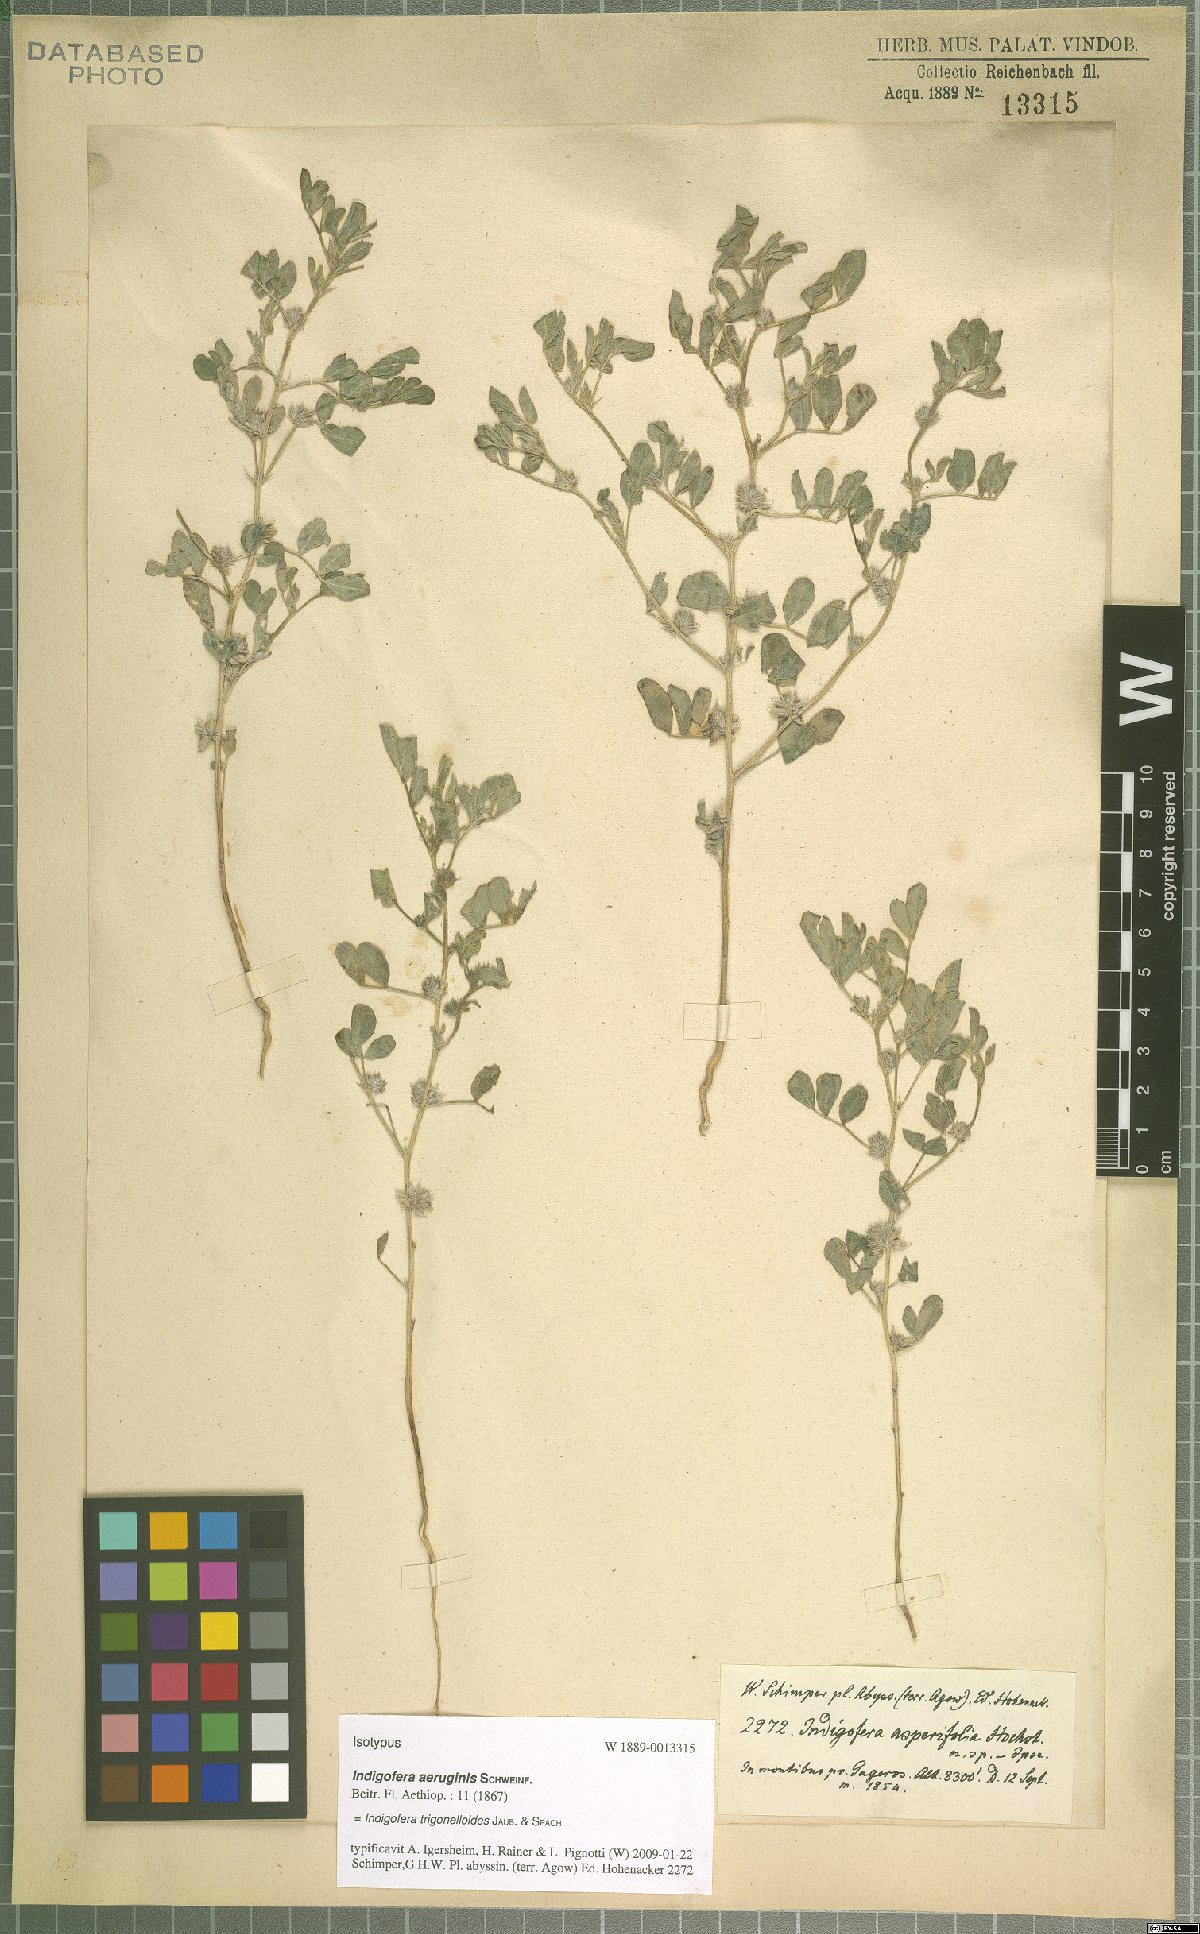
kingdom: Plantae
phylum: Tracheophyta
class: Magnoliopsida
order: Fabales
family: Fabaceae
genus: Indigofera
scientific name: Indigofera trigonelloides
